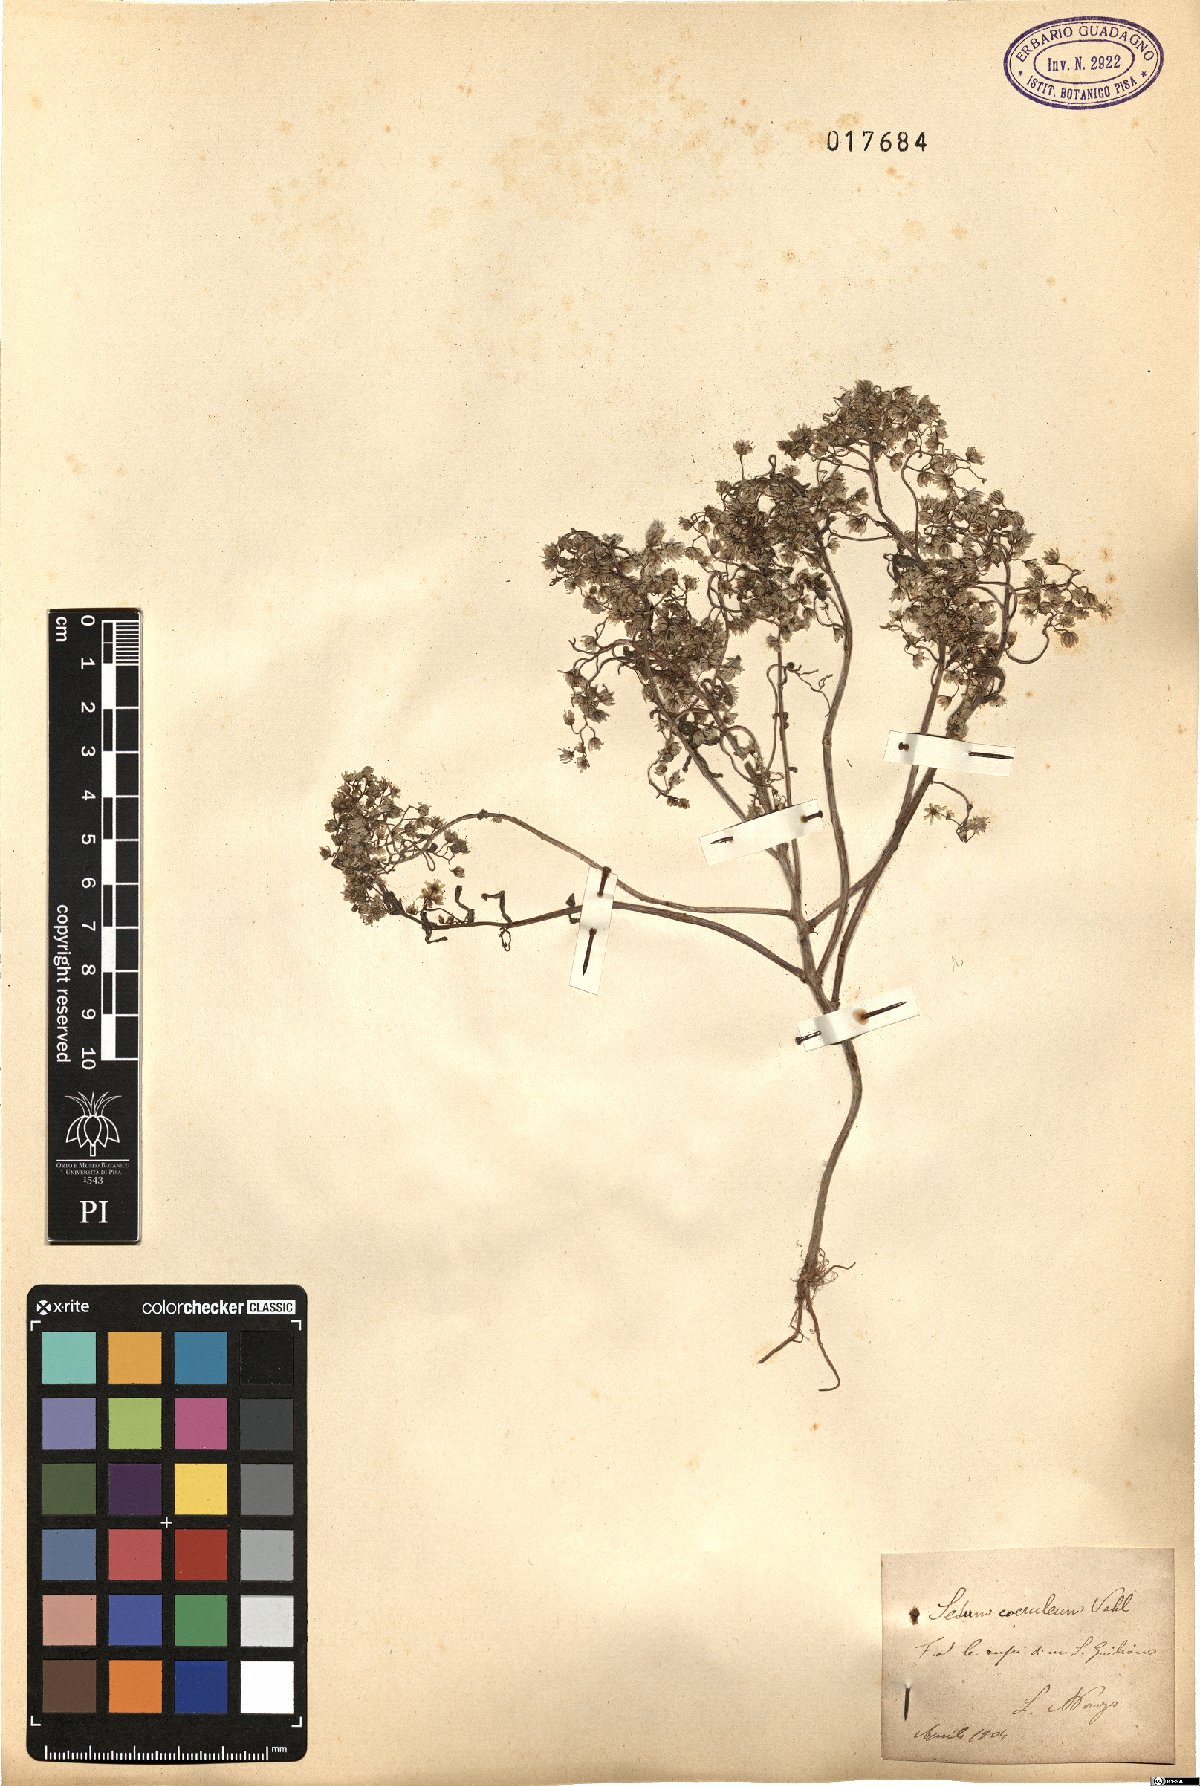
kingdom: Plantae
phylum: Tracheophyta
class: Magnoliopsida
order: Saxifragales
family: Crassulaceae
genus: Sedum
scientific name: Sedum caeruleum
